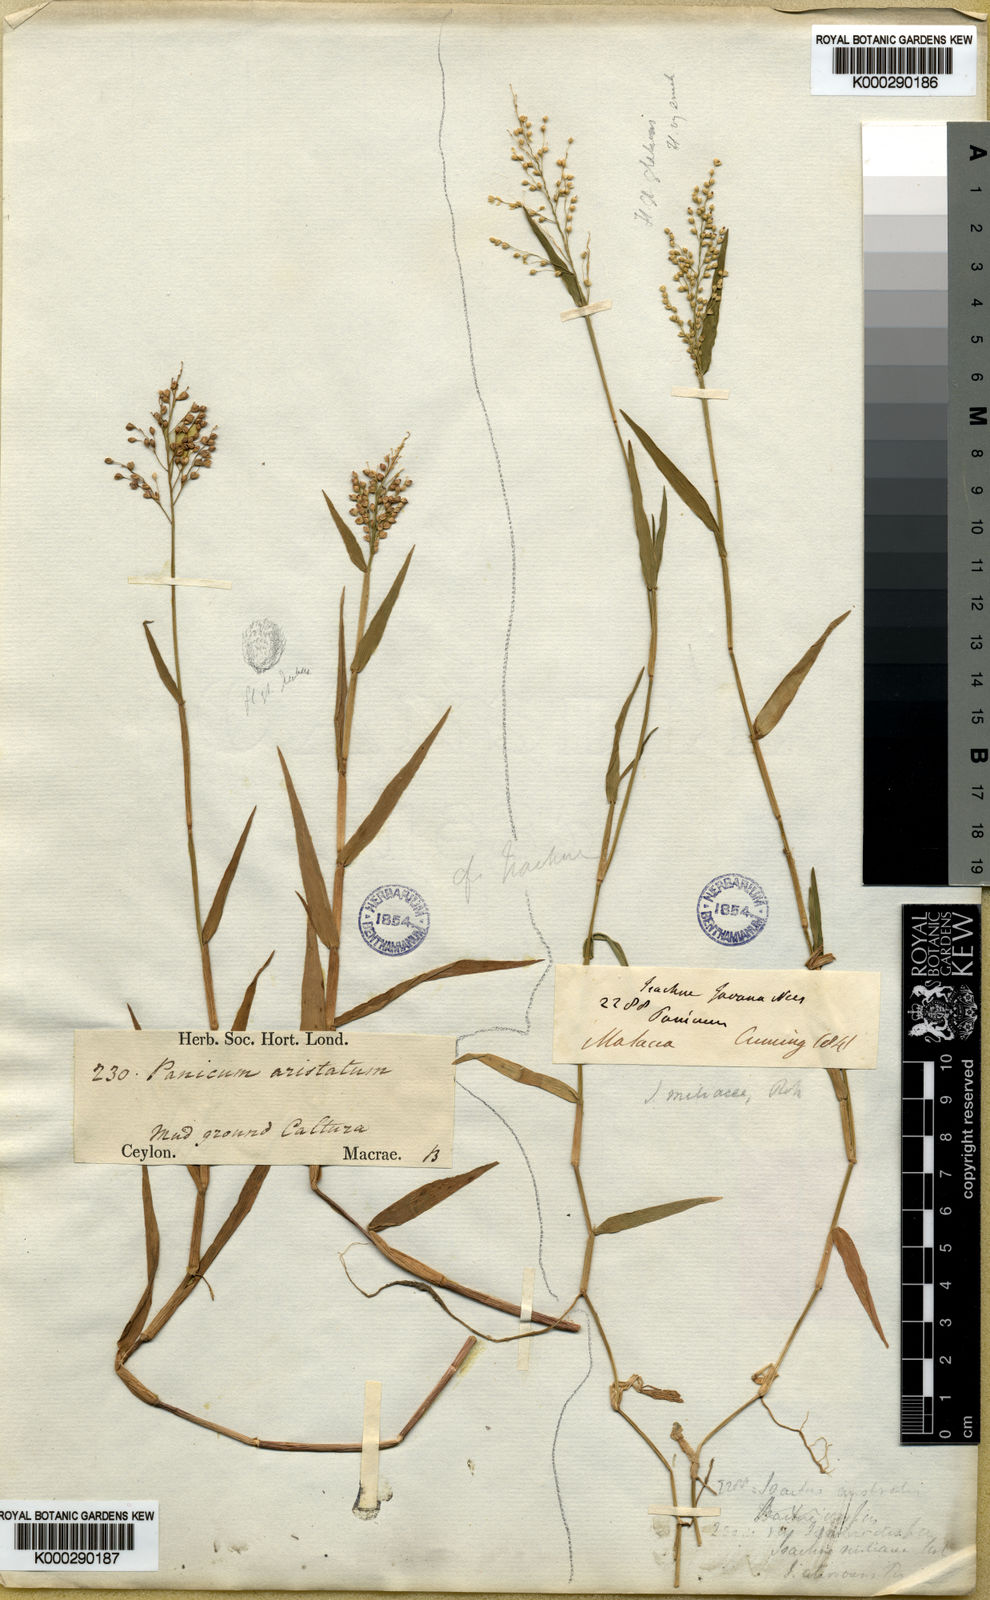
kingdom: Plantae
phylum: Tracheophyta
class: Liliopsida
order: Poales
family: Poaceae
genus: Isachne
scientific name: Isachne globosa
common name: Swamp millet
